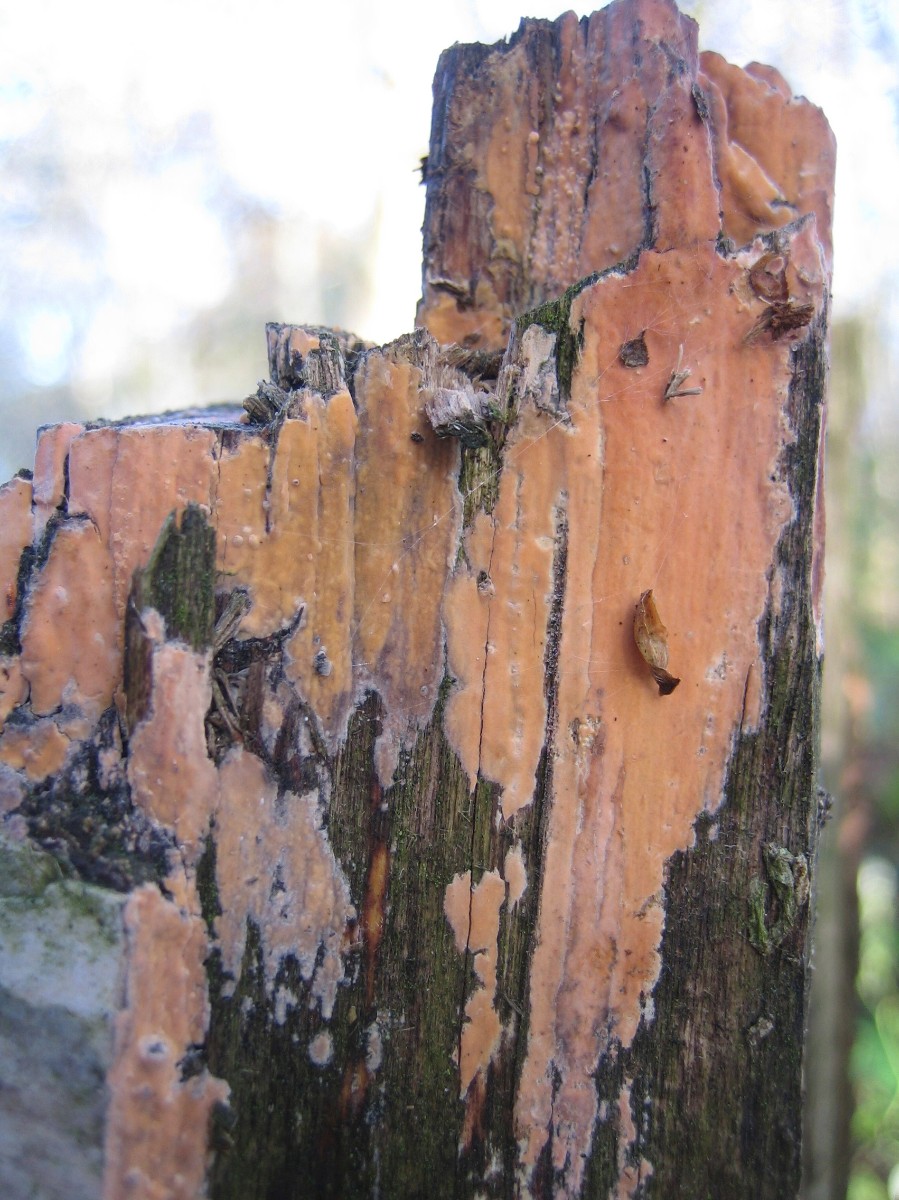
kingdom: Fungi
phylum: Basidiomycota
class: Agaricomycetes
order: Russulales
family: Peniophoraceae
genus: Peniophora
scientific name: Peniophora incarnata
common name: laksefarvet voksskind
